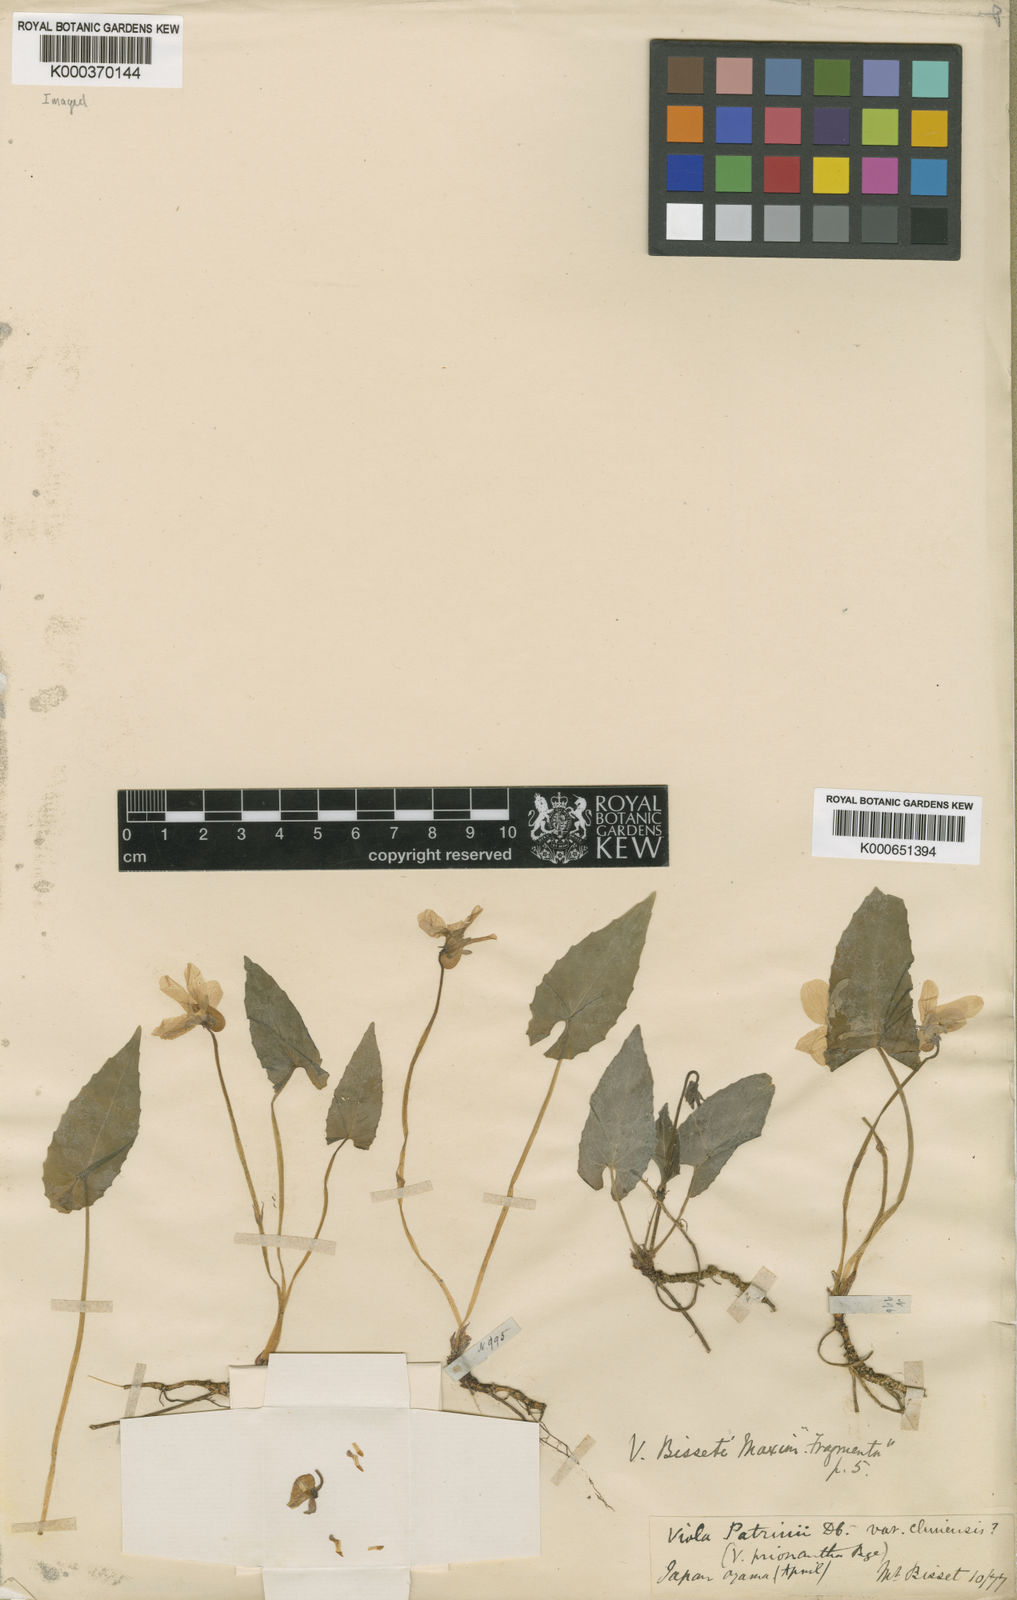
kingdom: Plantae
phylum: Tracheophyta
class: Magnoliopsida
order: Malpighiales
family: Violaceae
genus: Viola
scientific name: Viola bissetii
